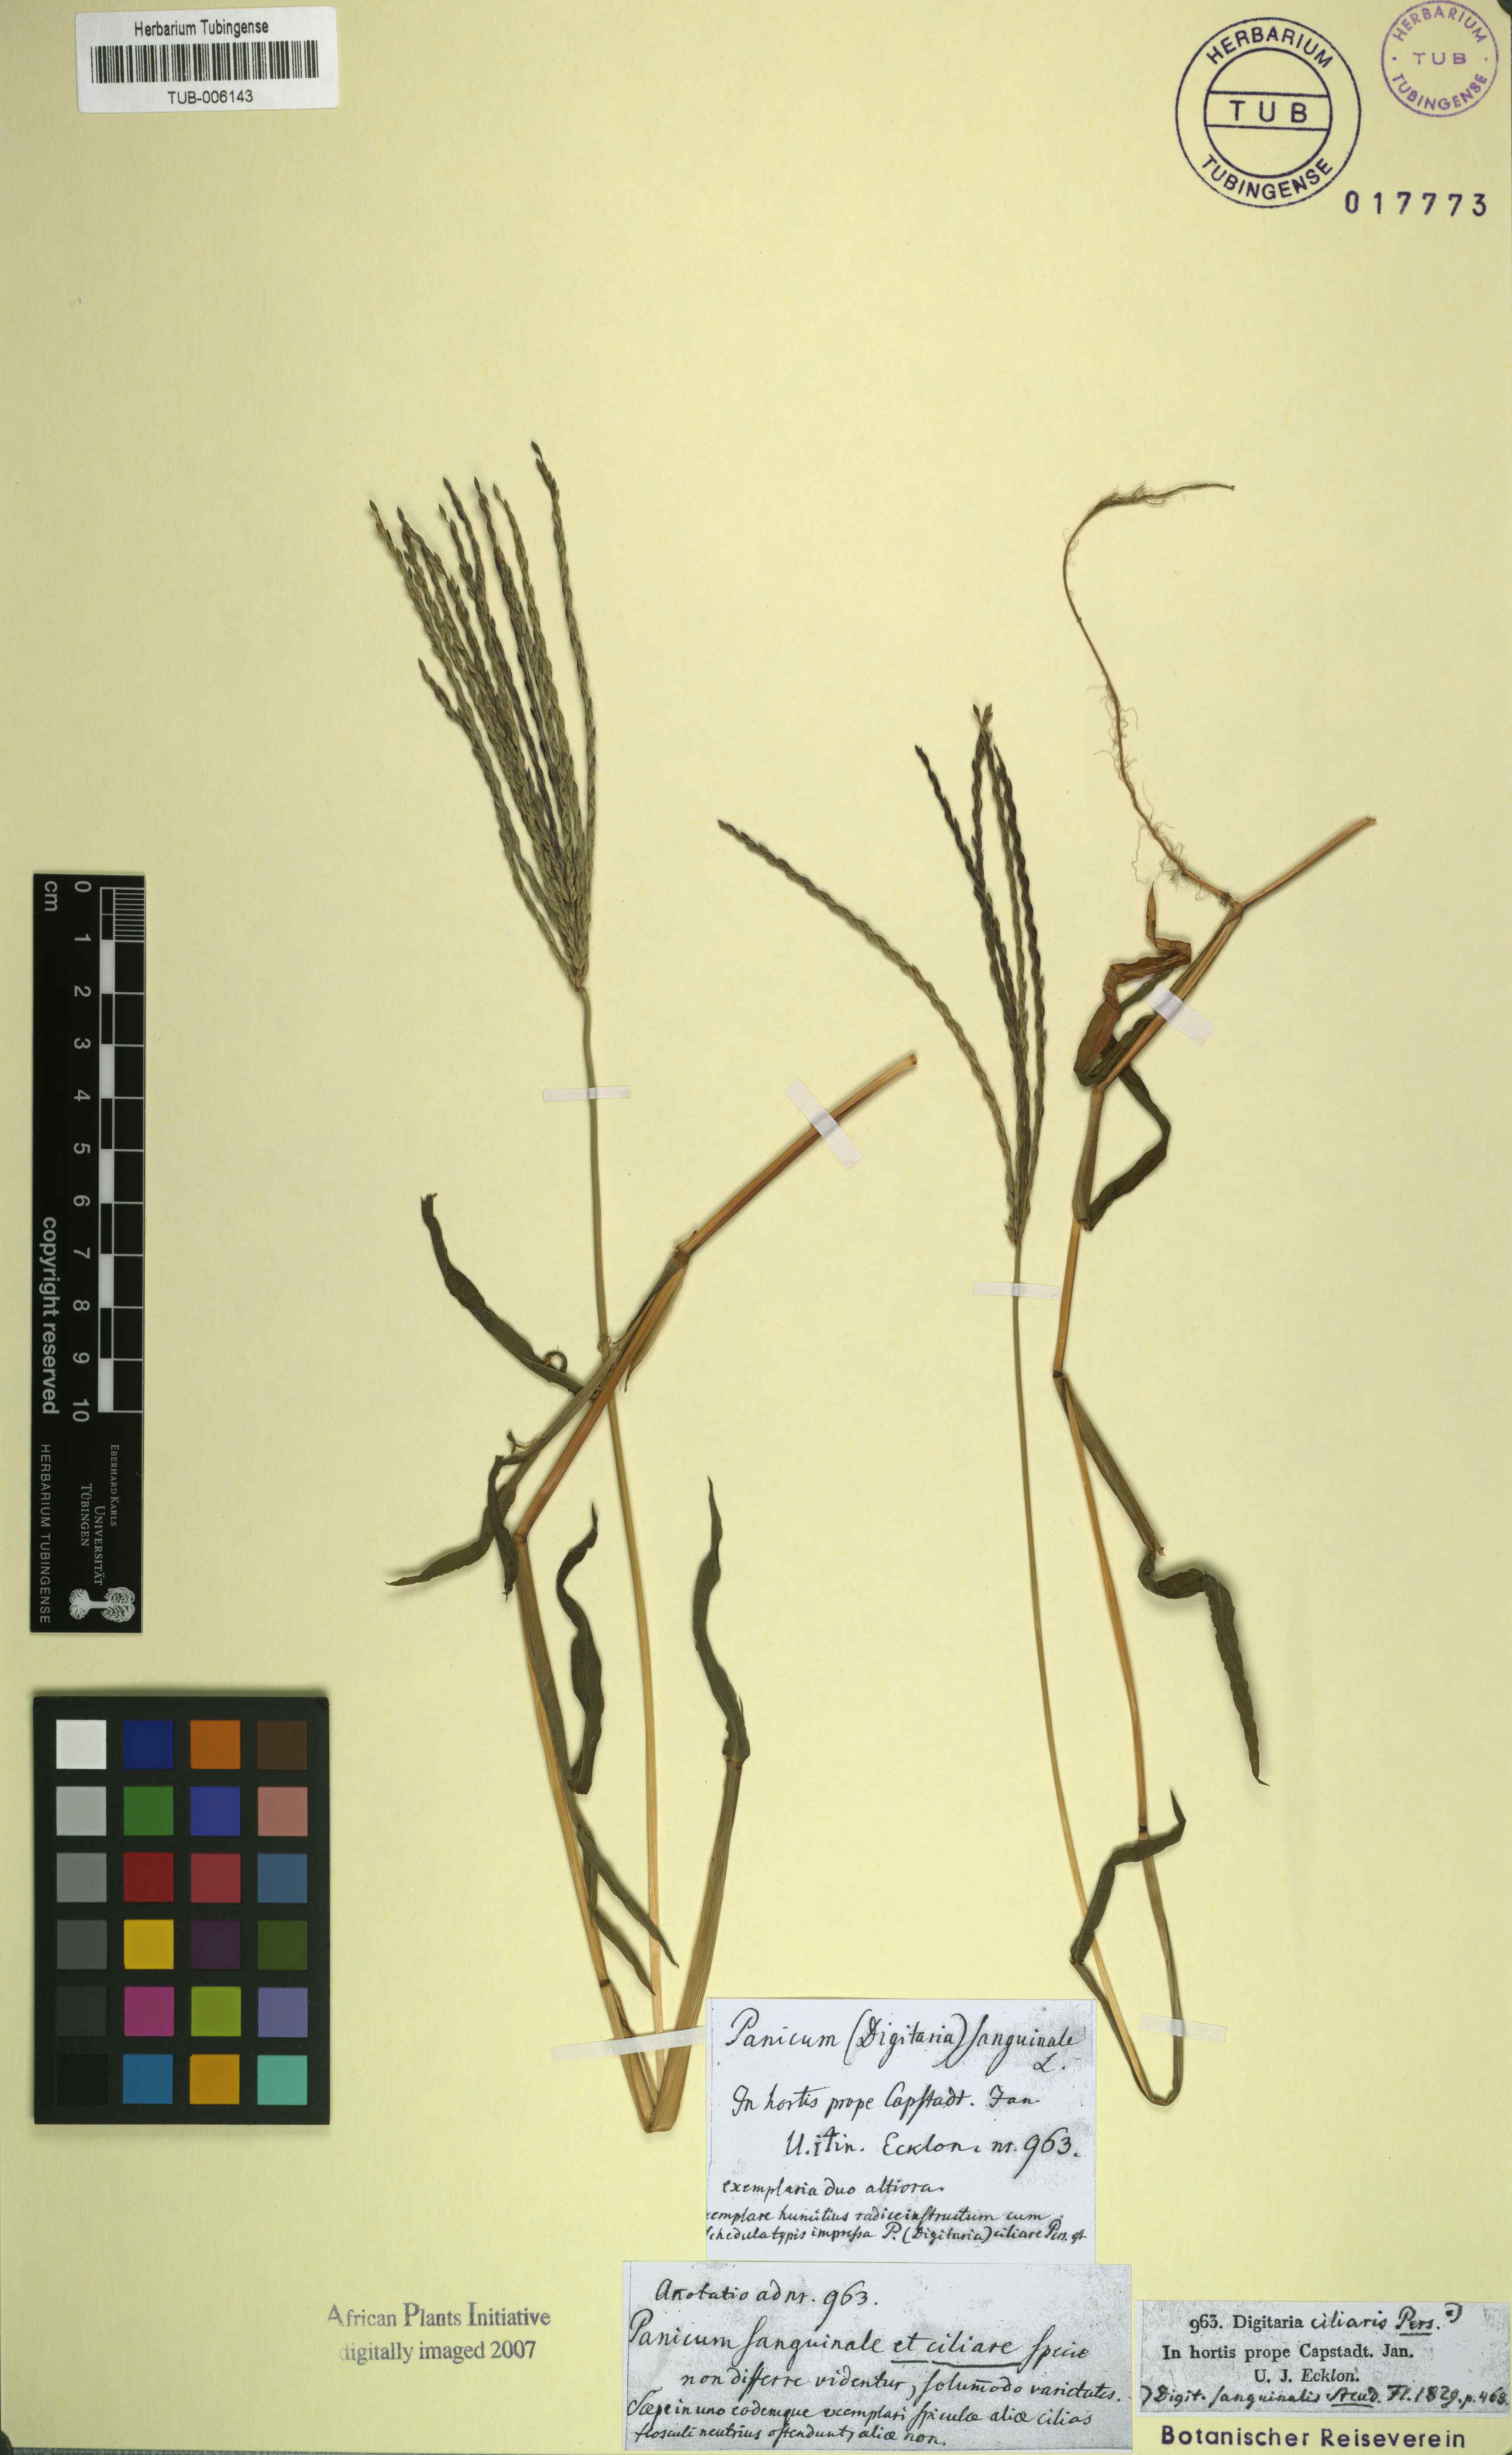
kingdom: Plantae
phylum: Tracheophyta
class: Liliopsida
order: Poales
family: Poaceae
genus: Digitaria
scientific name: Digitaria sanguinalis
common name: Hairy crabgrass
